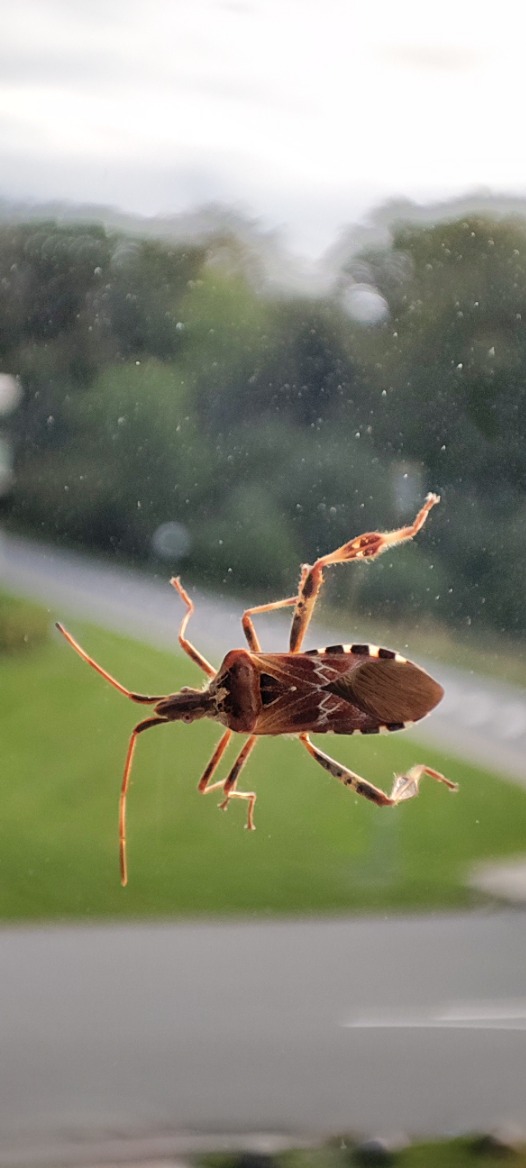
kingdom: Animalia
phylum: Arthropoda
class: Insecta
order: Hemiptera
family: Coreidae
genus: Leptoglossus
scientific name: Leptoglossus occidentalis
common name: Amerikansk fyrretæge
